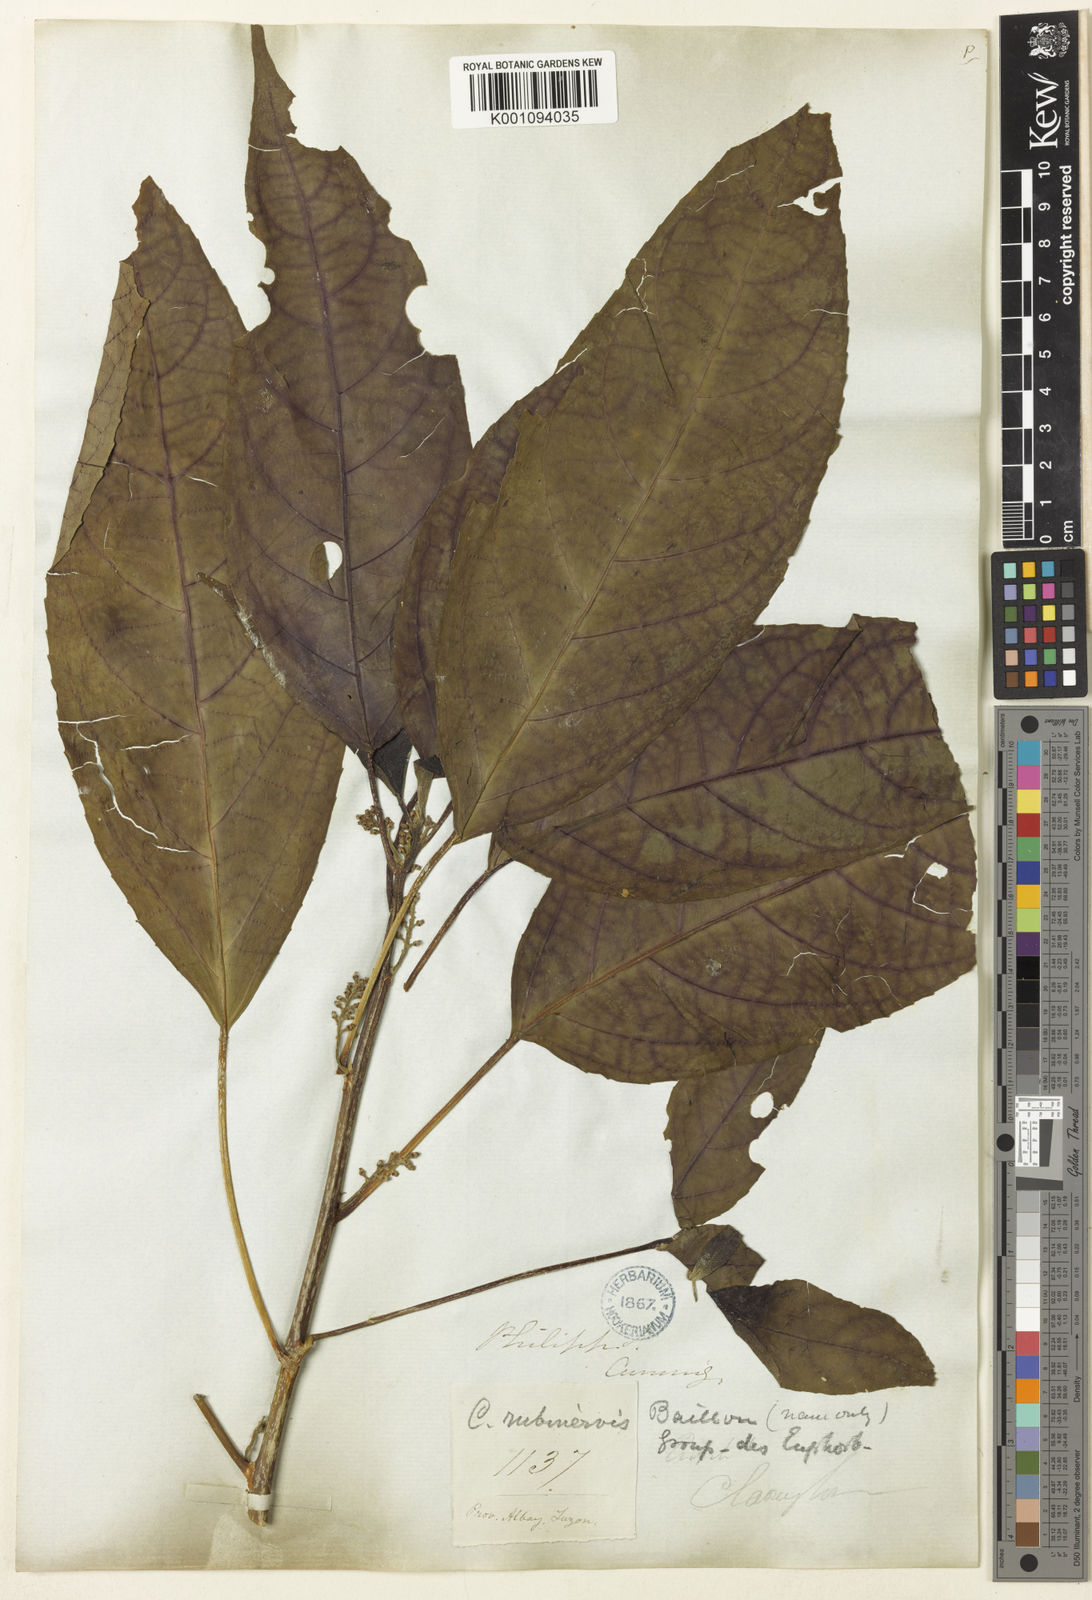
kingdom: Plantae
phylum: Tracheophyta
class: Magnoliopsida
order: Malpighiales
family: Euphorbiaceae
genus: Claoxylon
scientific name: Claoxylon brachyandrum
